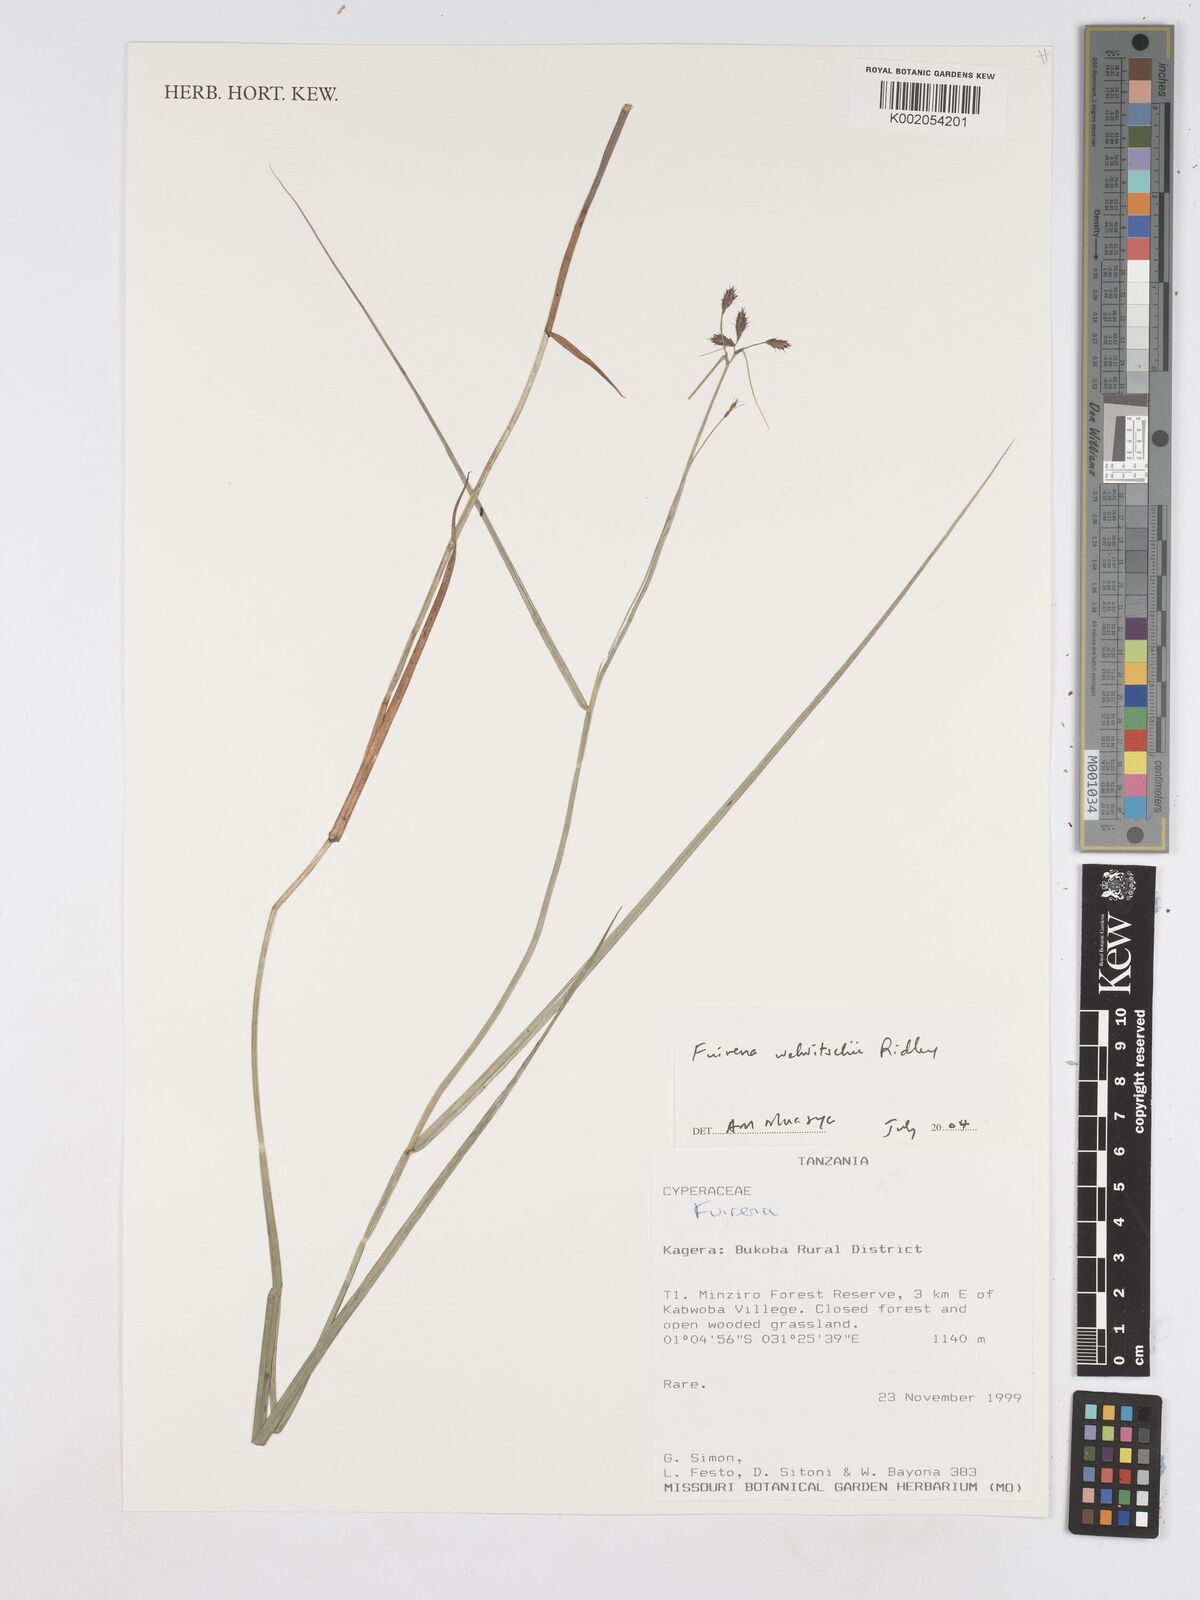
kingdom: Plantae
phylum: Tracheophyta
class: Liliopsida
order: Poales
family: Cyperaceae
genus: Fuirena
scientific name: Fuirena welwitschii
